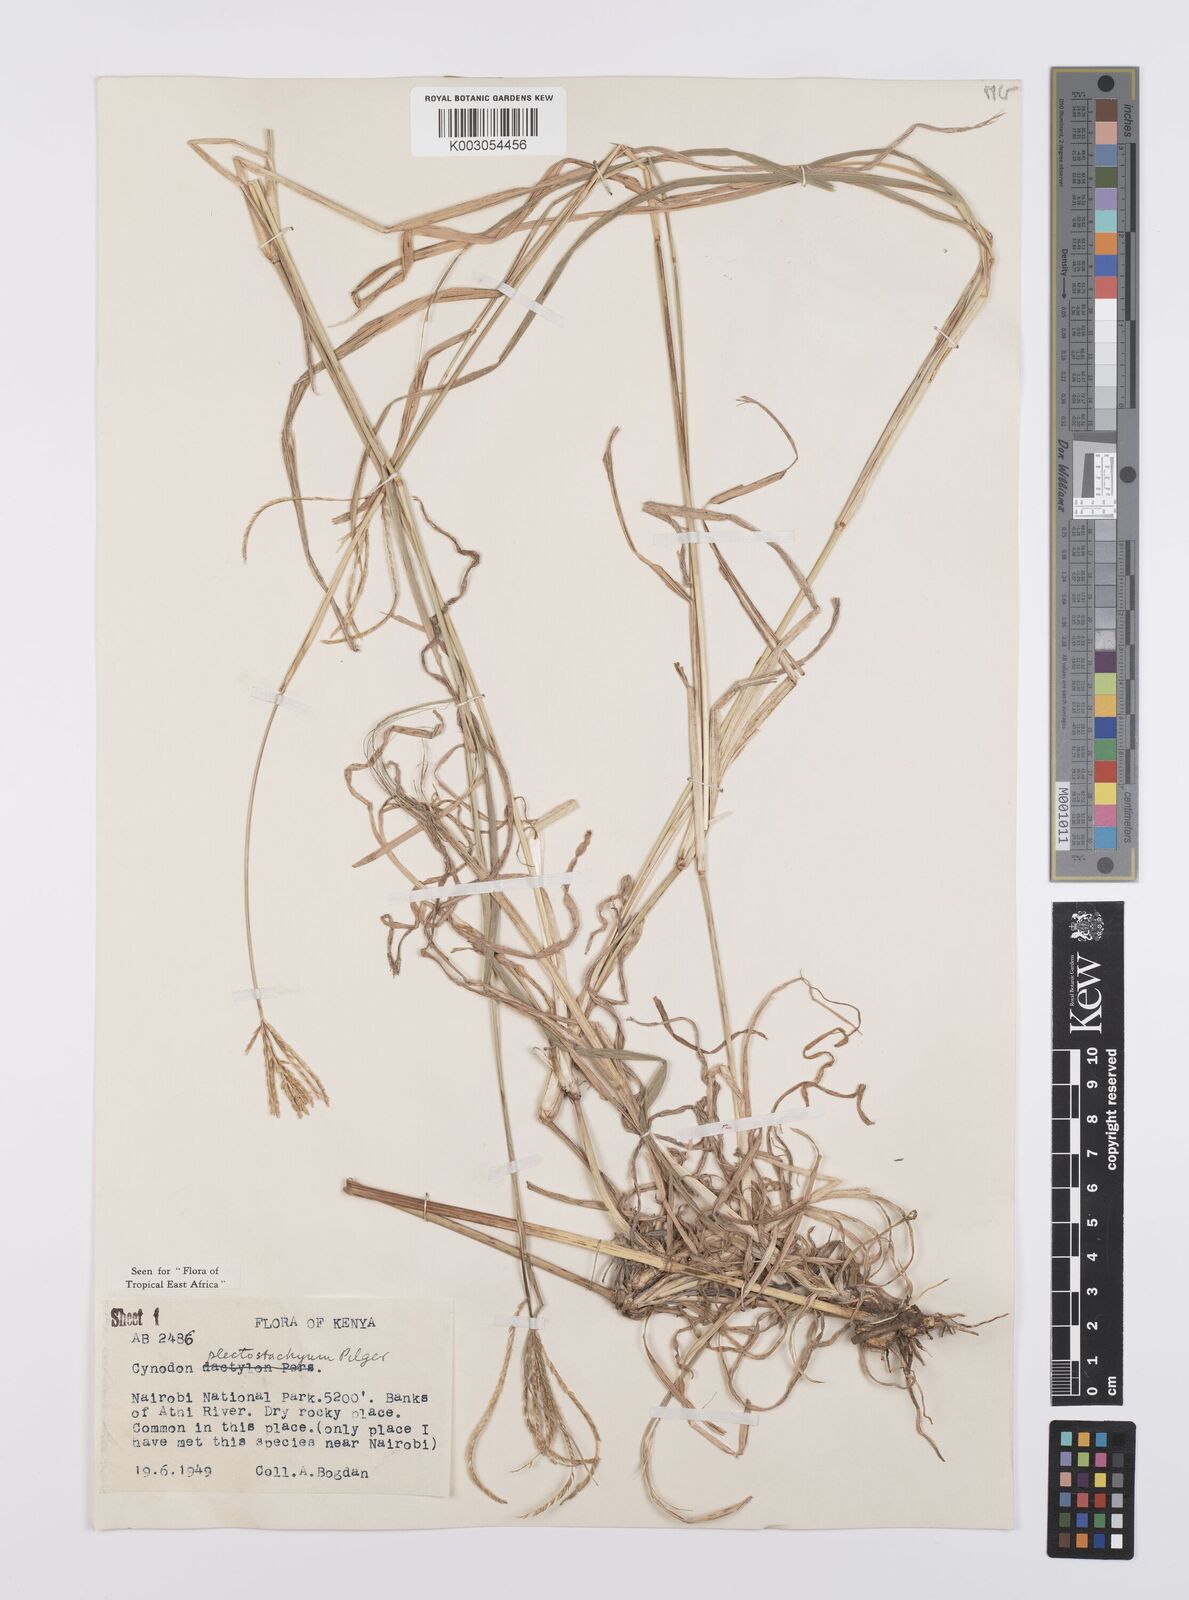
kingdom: Plantae
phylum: Tracheophyta
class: Liliopsida
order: Poales
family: Poaceae
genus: Cynodon
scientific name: Cynodon plectostachyus
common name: Stargrass
